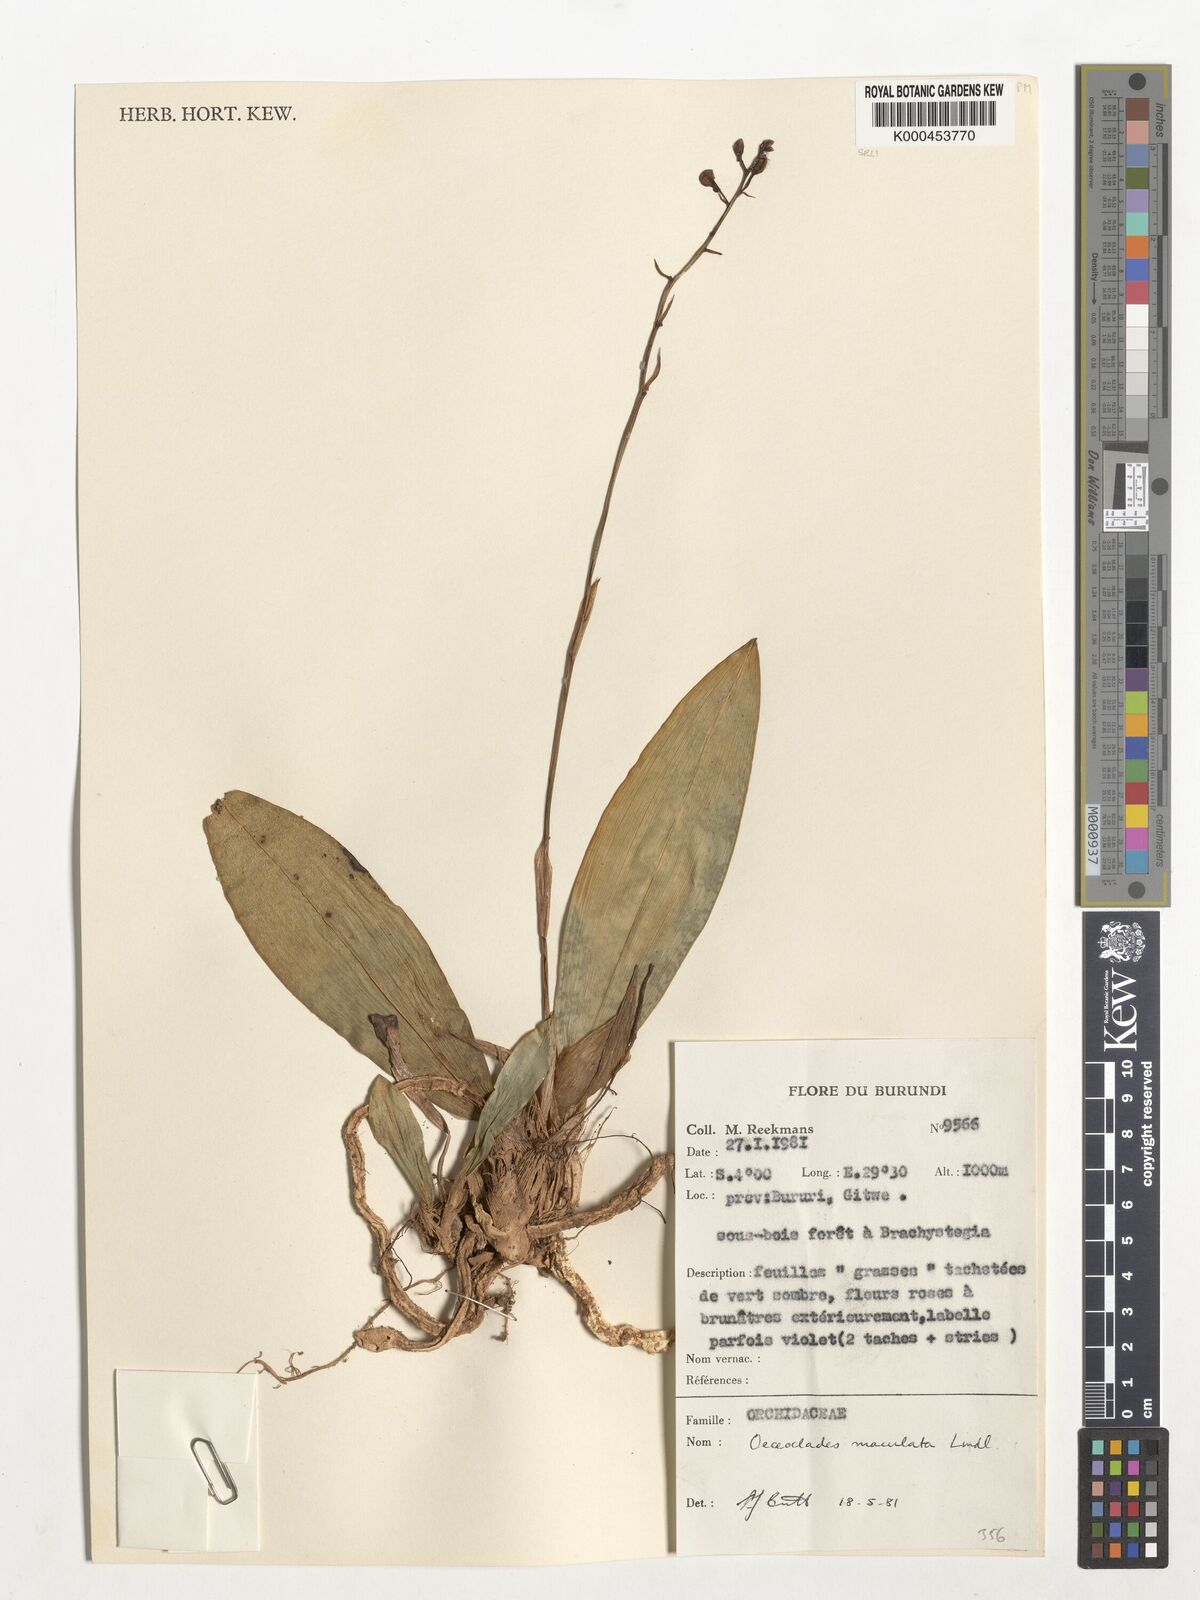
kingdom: Plantae
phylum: Tracheophyta
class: Liliopsida
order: Asparagales
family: Orchidaceae
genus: Eulophia
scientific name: Eulophia maculata
